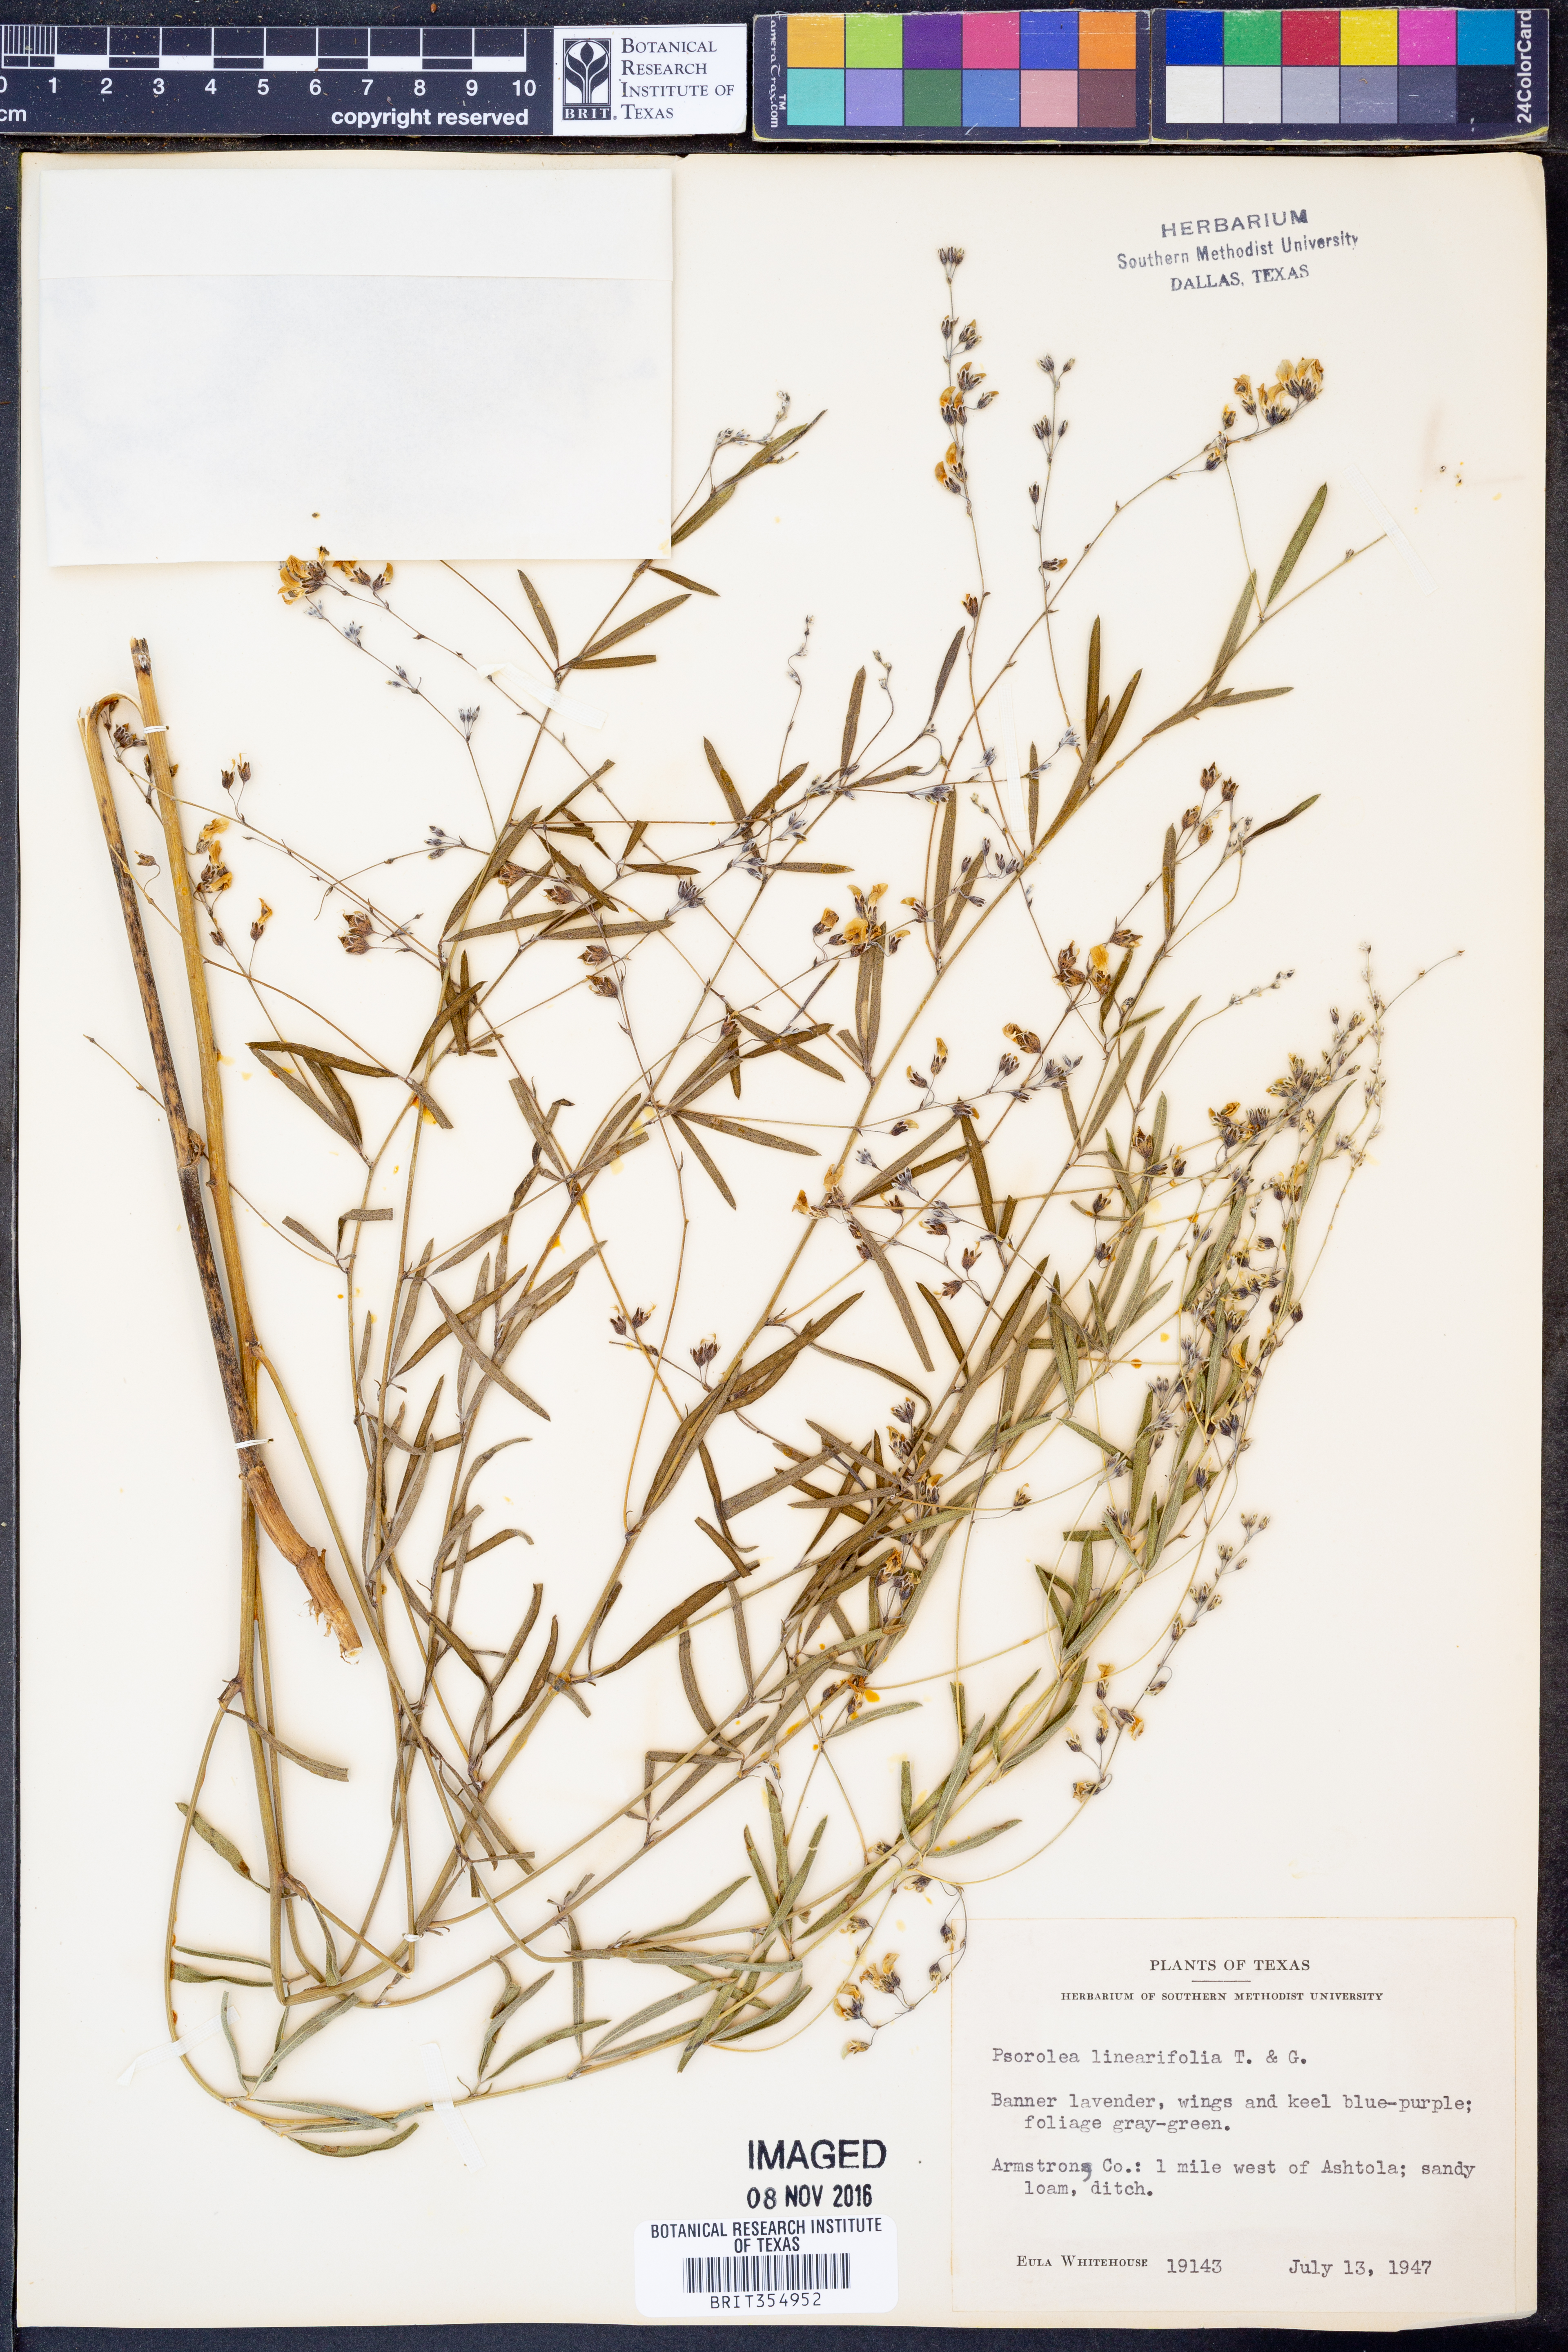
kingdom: Plantae
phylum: Tracheophyta
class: Magnoliopsida
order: Fabales
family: Fabaceae
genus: Pediomelum
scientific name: Pediomelum linearifolium
